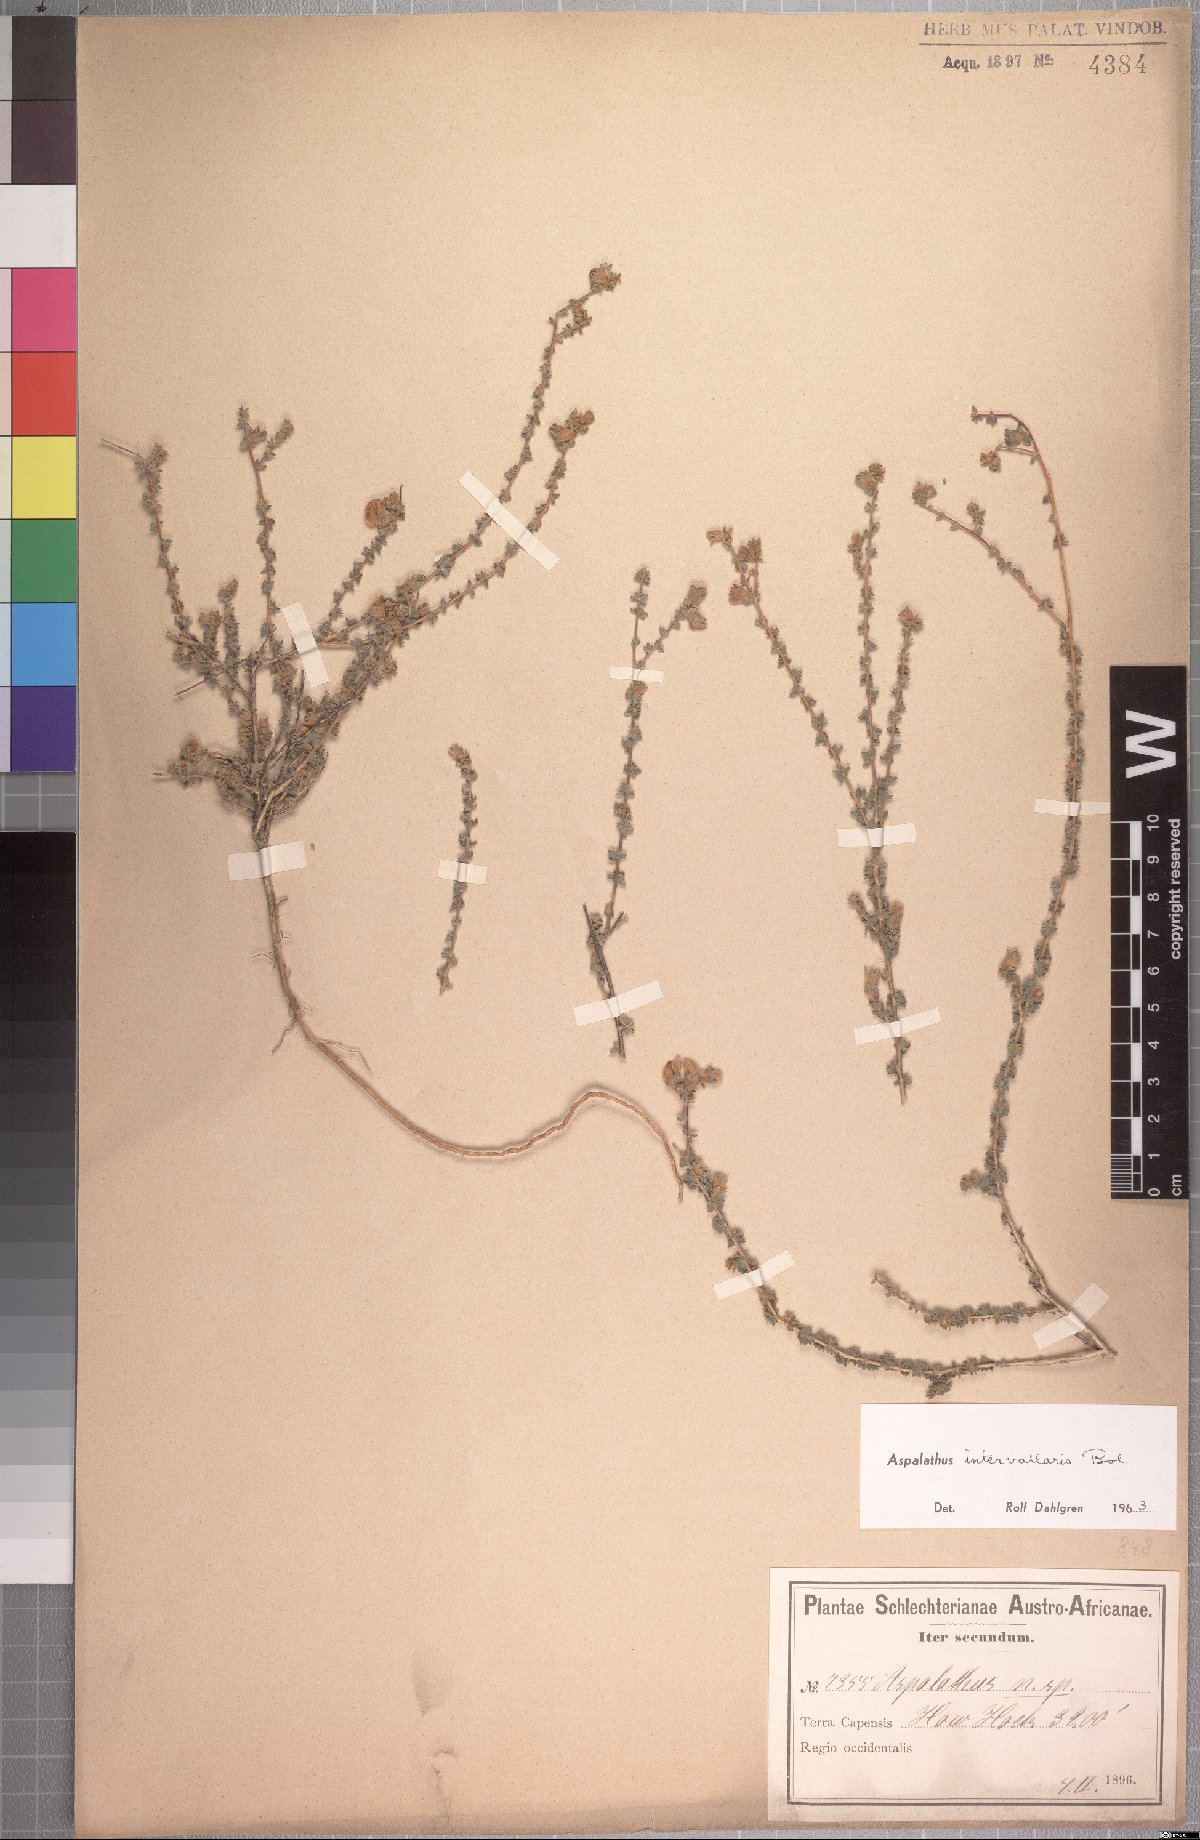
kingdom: Plantae
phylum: Tracheophyta
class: Magnoliopsida
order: Fabales
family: Fabaceae
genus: Aspalathus
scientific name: Aspalathus intervallaris
